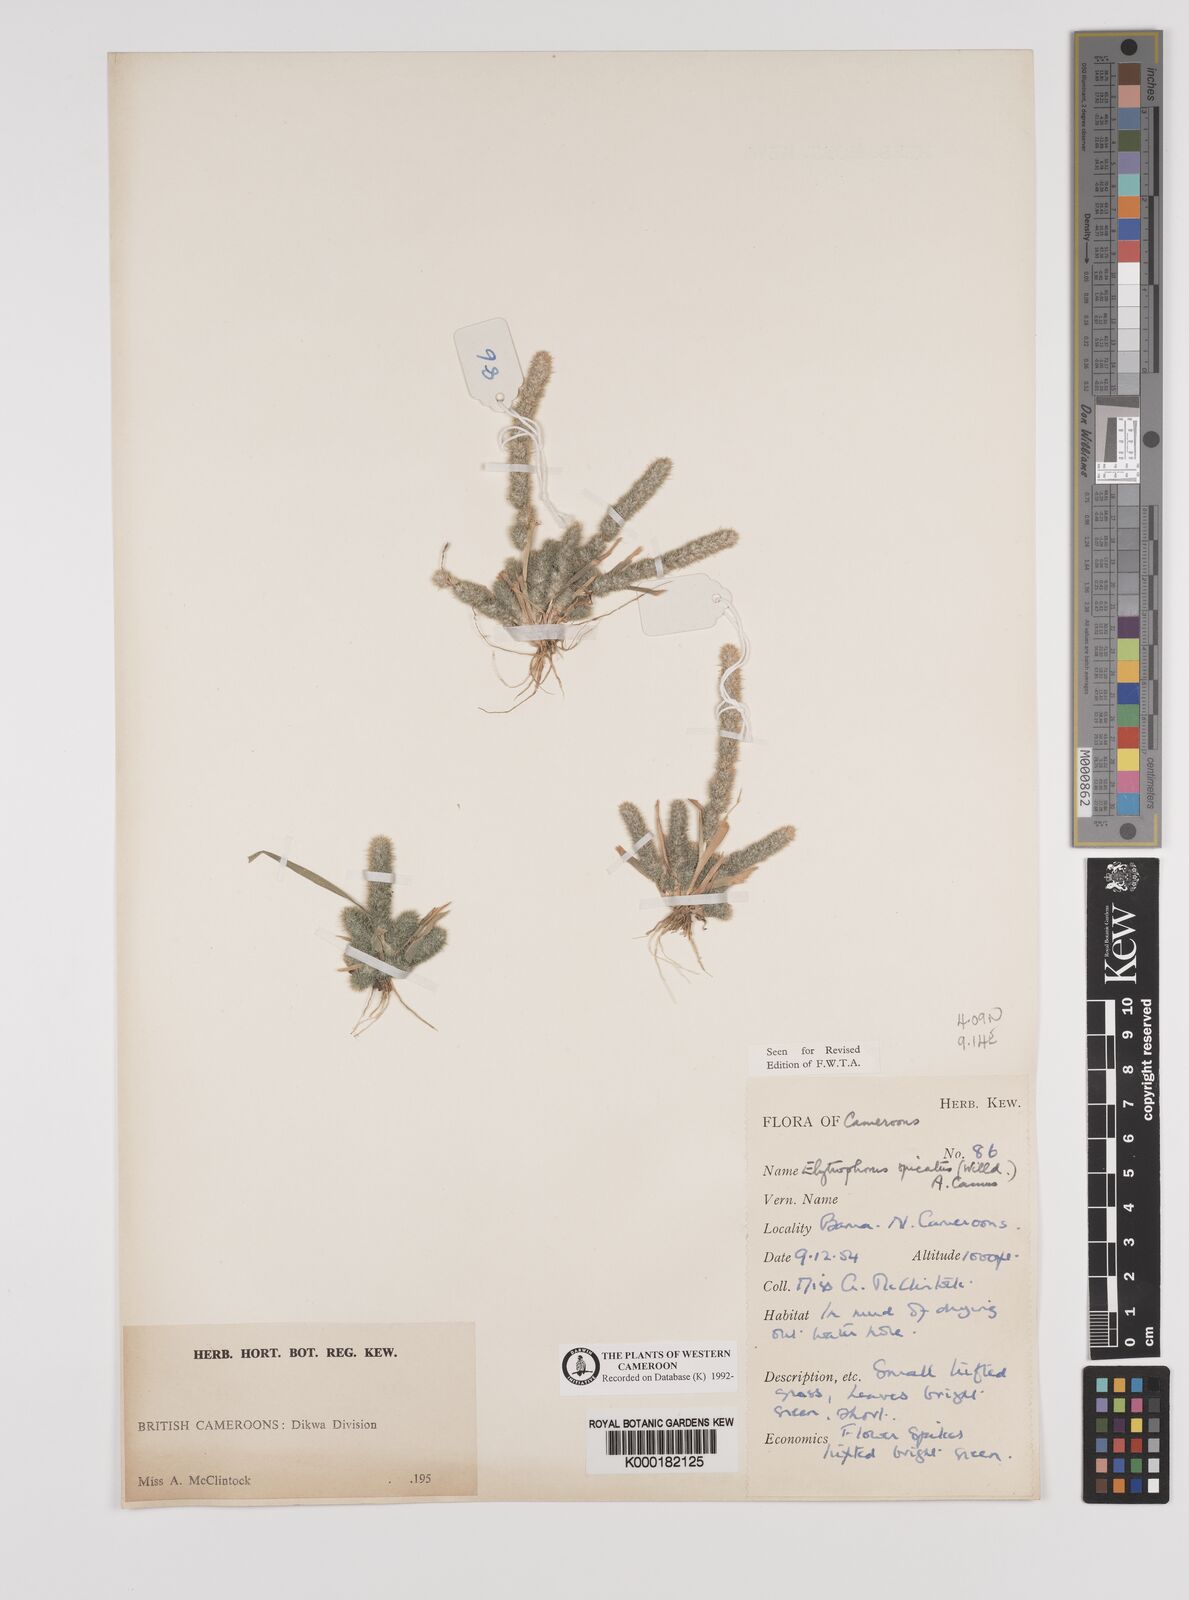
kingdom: Plantae
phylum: Tracheophyta
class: Liliopsida
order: Poales
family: Poaceae
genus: Elytrophorus
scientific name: Elytrophorus spicatus
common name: Spike grass
